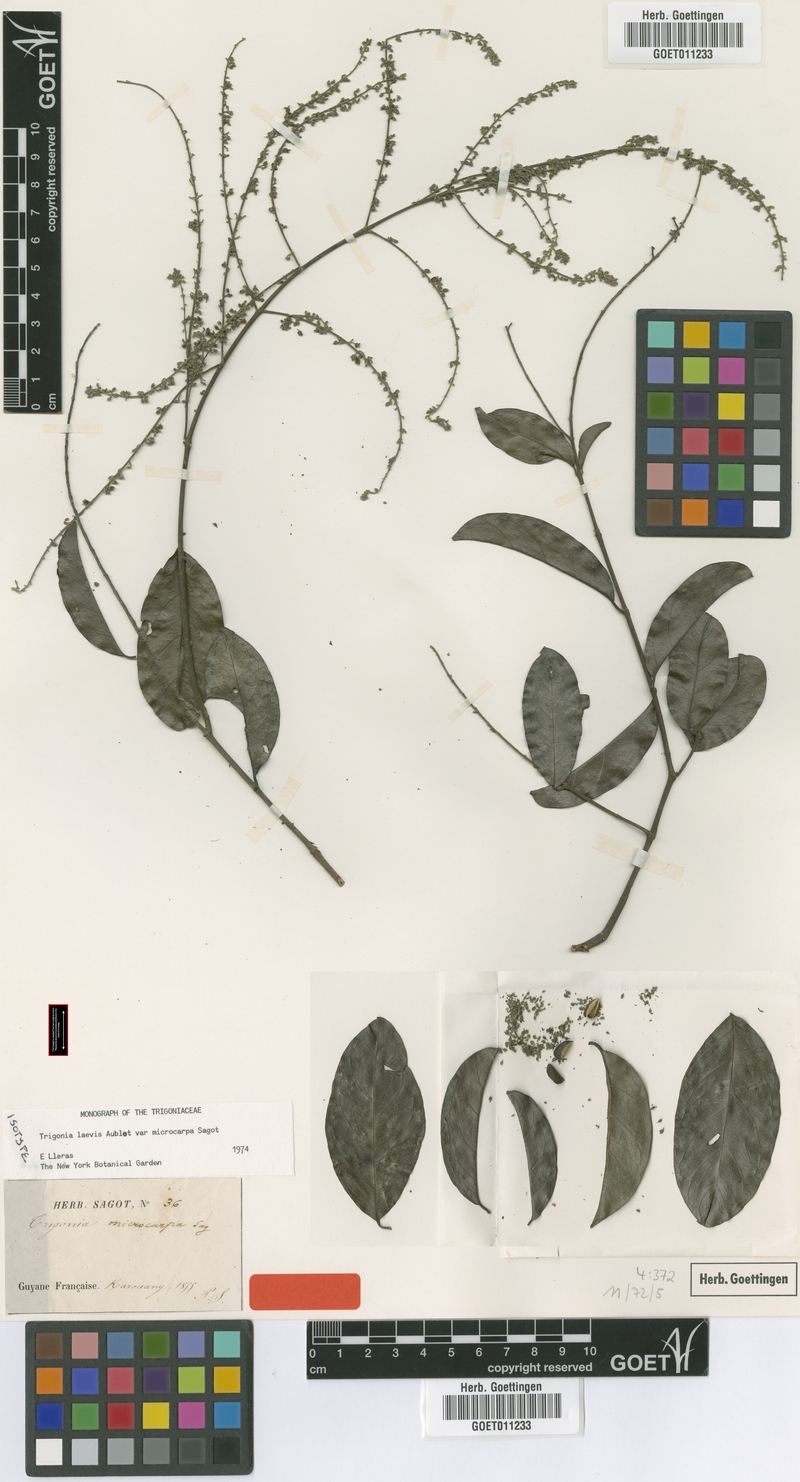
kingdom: Plantae
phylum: Tracheophyta
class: Magnoliopsida
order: Malpighiales
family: Trigoniaceae
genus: Trigonia
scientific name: Trigonia microcarpa
